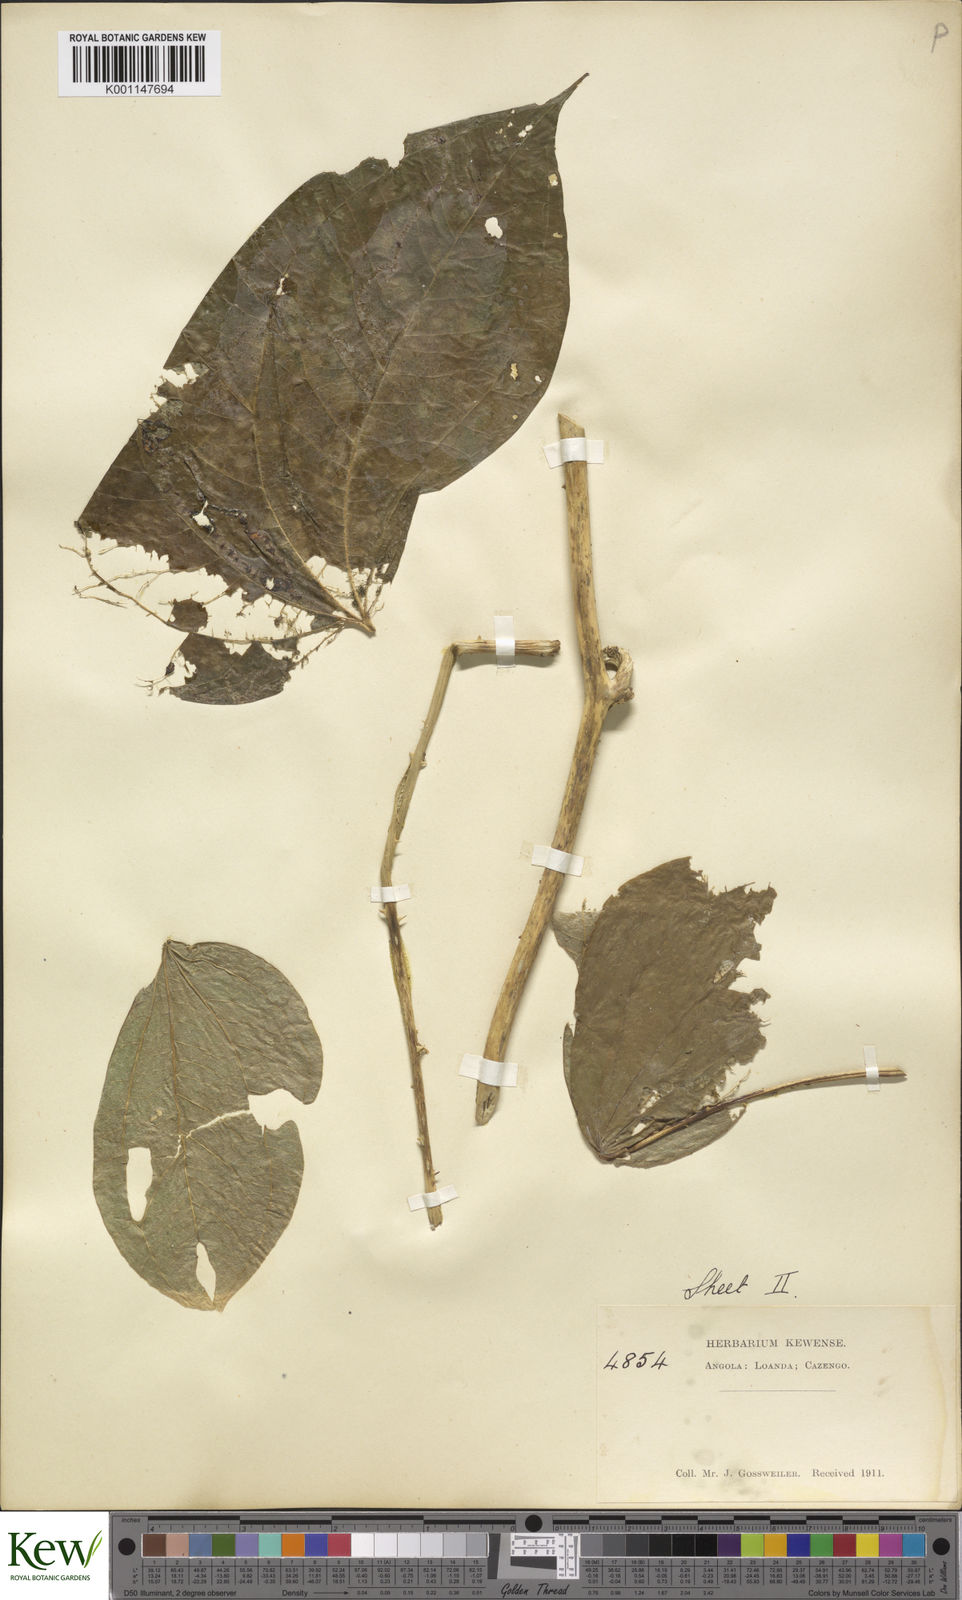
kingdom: Plantae
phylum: Tracheophyta
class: Liliopsida
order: Dioscoreales
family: Dioscoreaceae
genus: Dioscorea
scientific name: Dioscorea dumetorum
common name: African bitter yam
